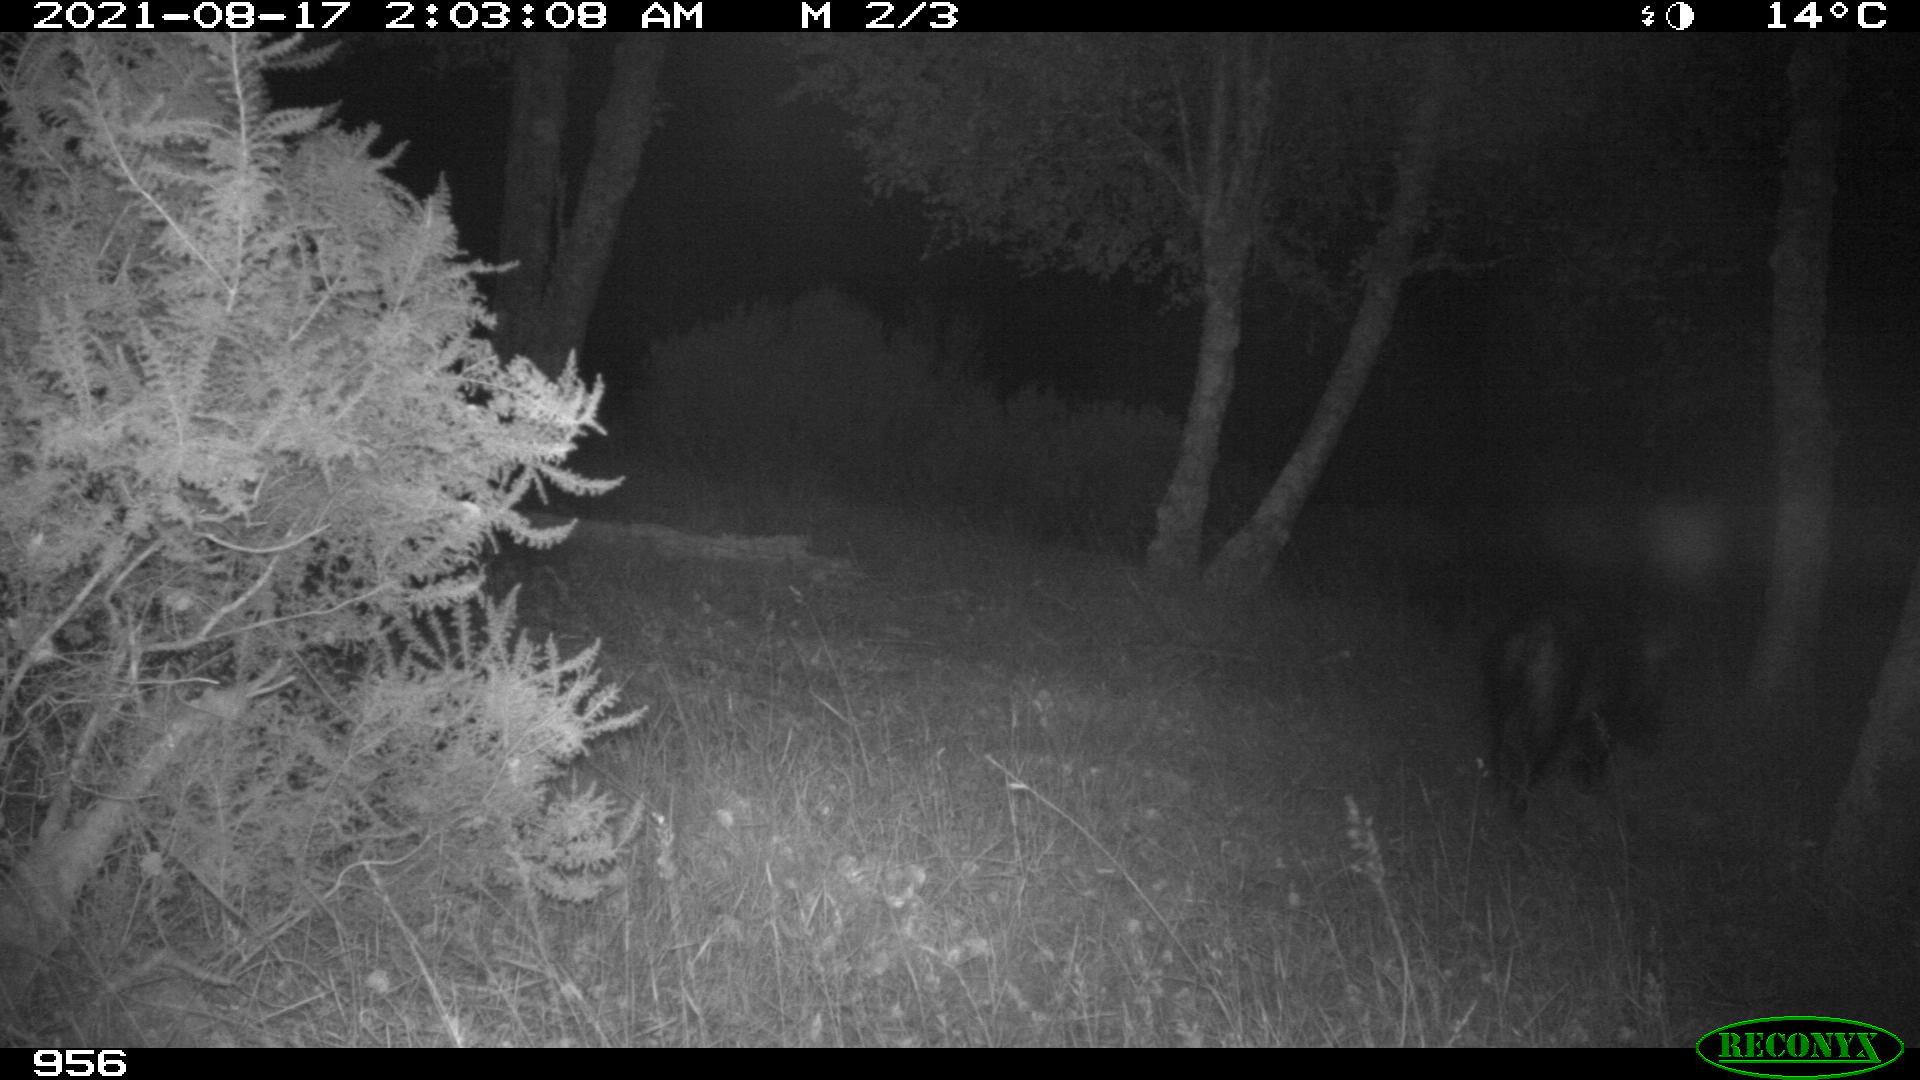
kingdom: Animalia
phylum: Chordata
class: Mammalia
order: Artiodactyla
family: Suidae
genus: Sus
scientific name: Sus scrofa
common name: Wild boar
